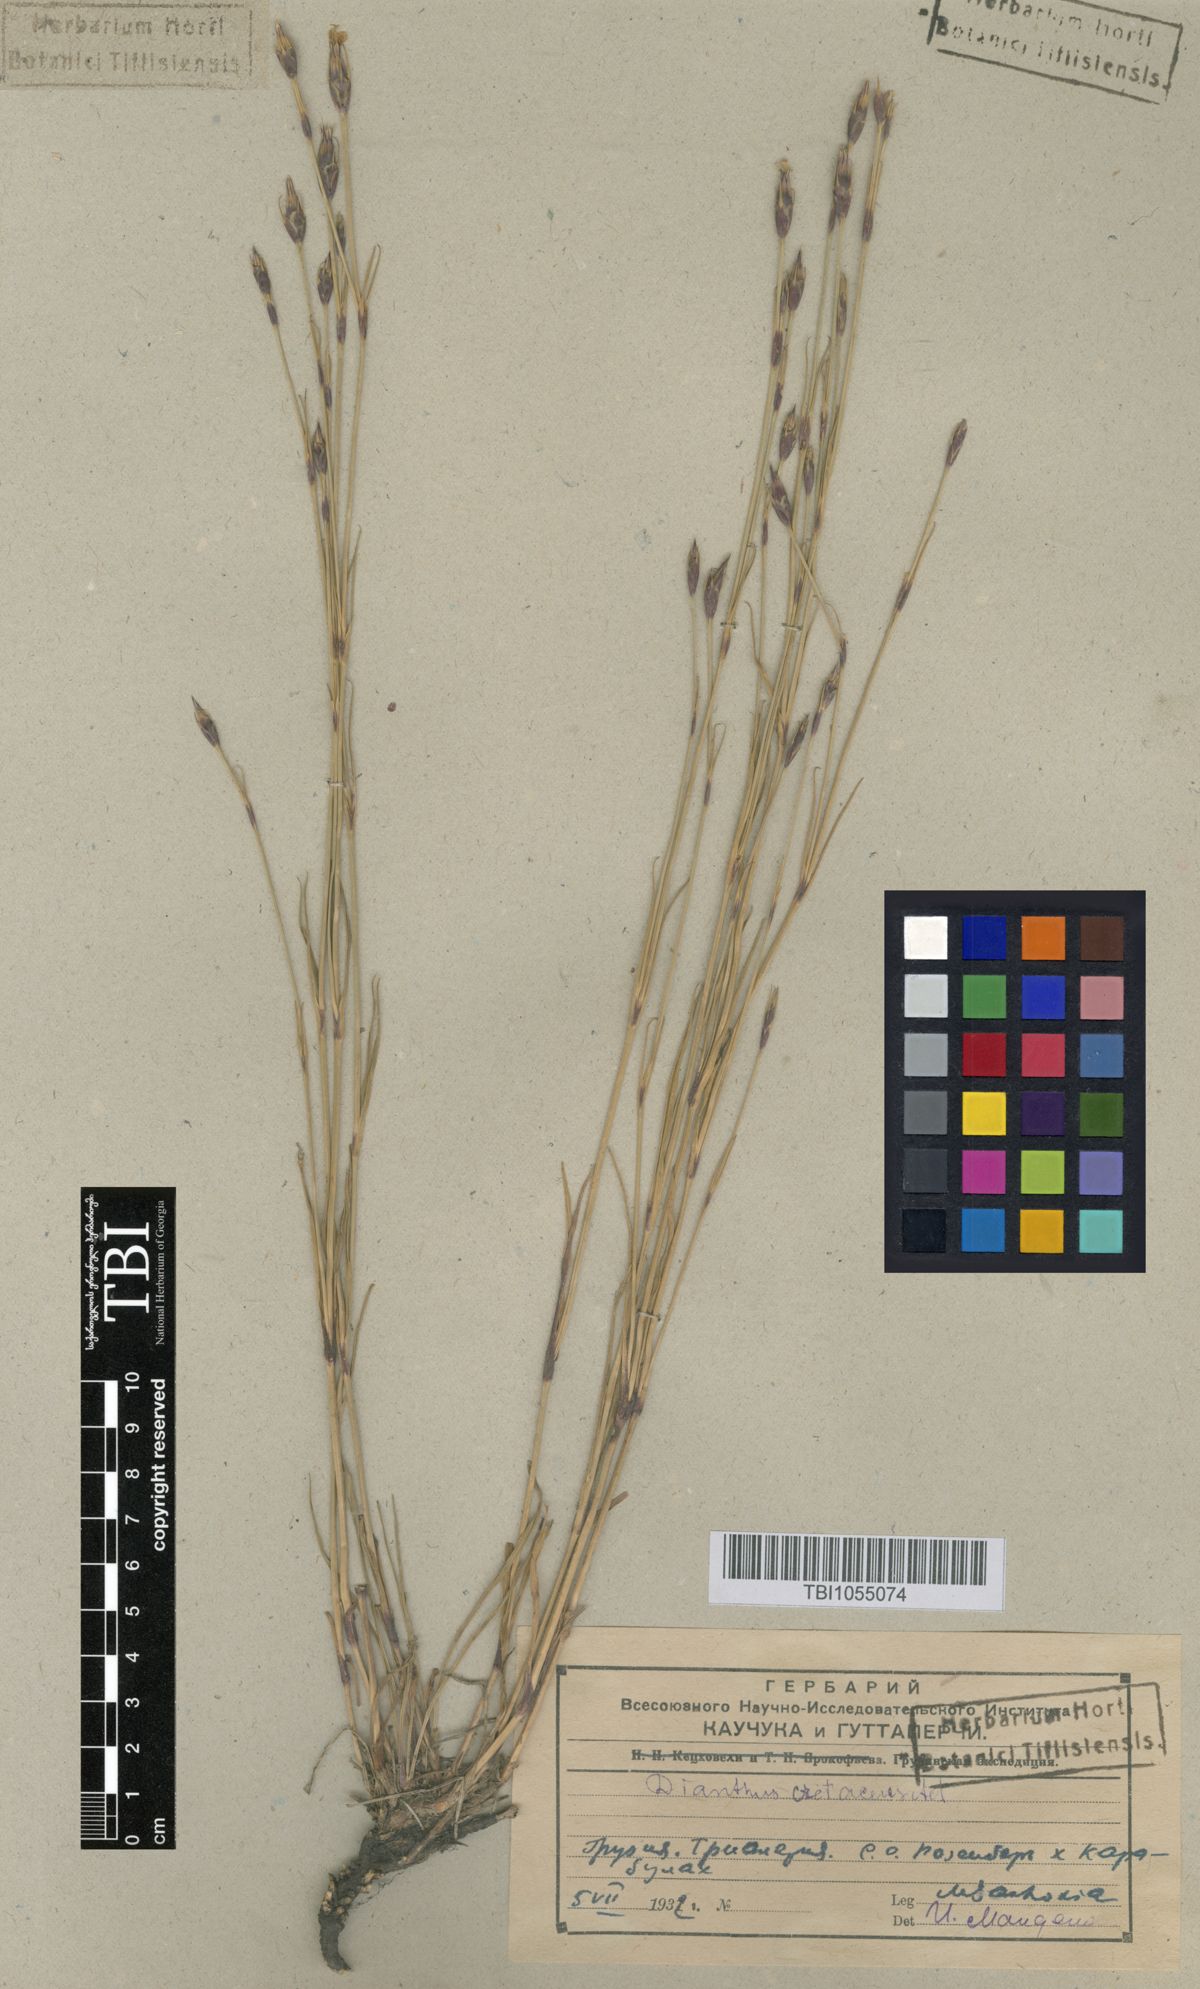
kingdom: Plantae
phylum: Tracheophyta
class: Magnoliopsida
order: Caryophyllales
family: Caryophyllaceae
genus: Dianthus
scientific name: Dianthus cretaceus
